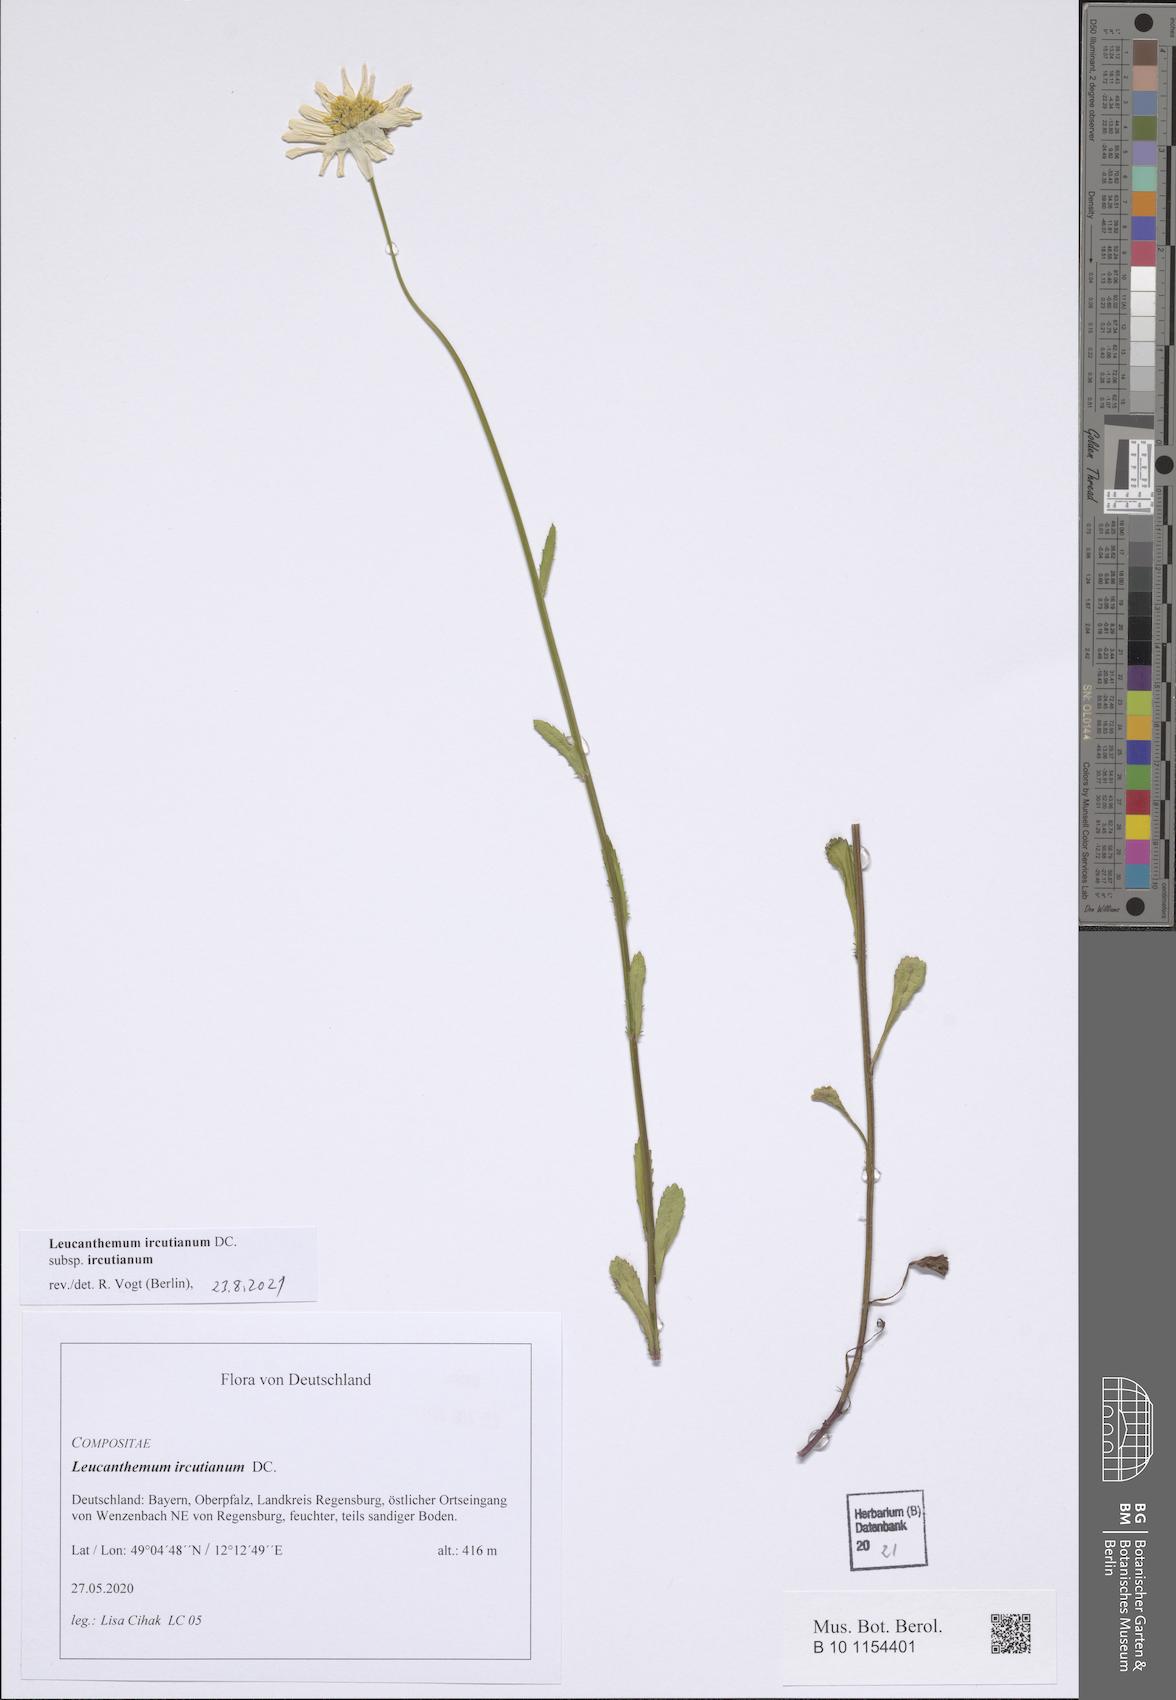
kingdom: Plantae
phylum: Tracheophyta
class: Magnoliopsida
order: Asterales
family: Asteraceae
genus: Leucanthemum
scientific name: Leucanthemum ircutianum
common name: Daisy
